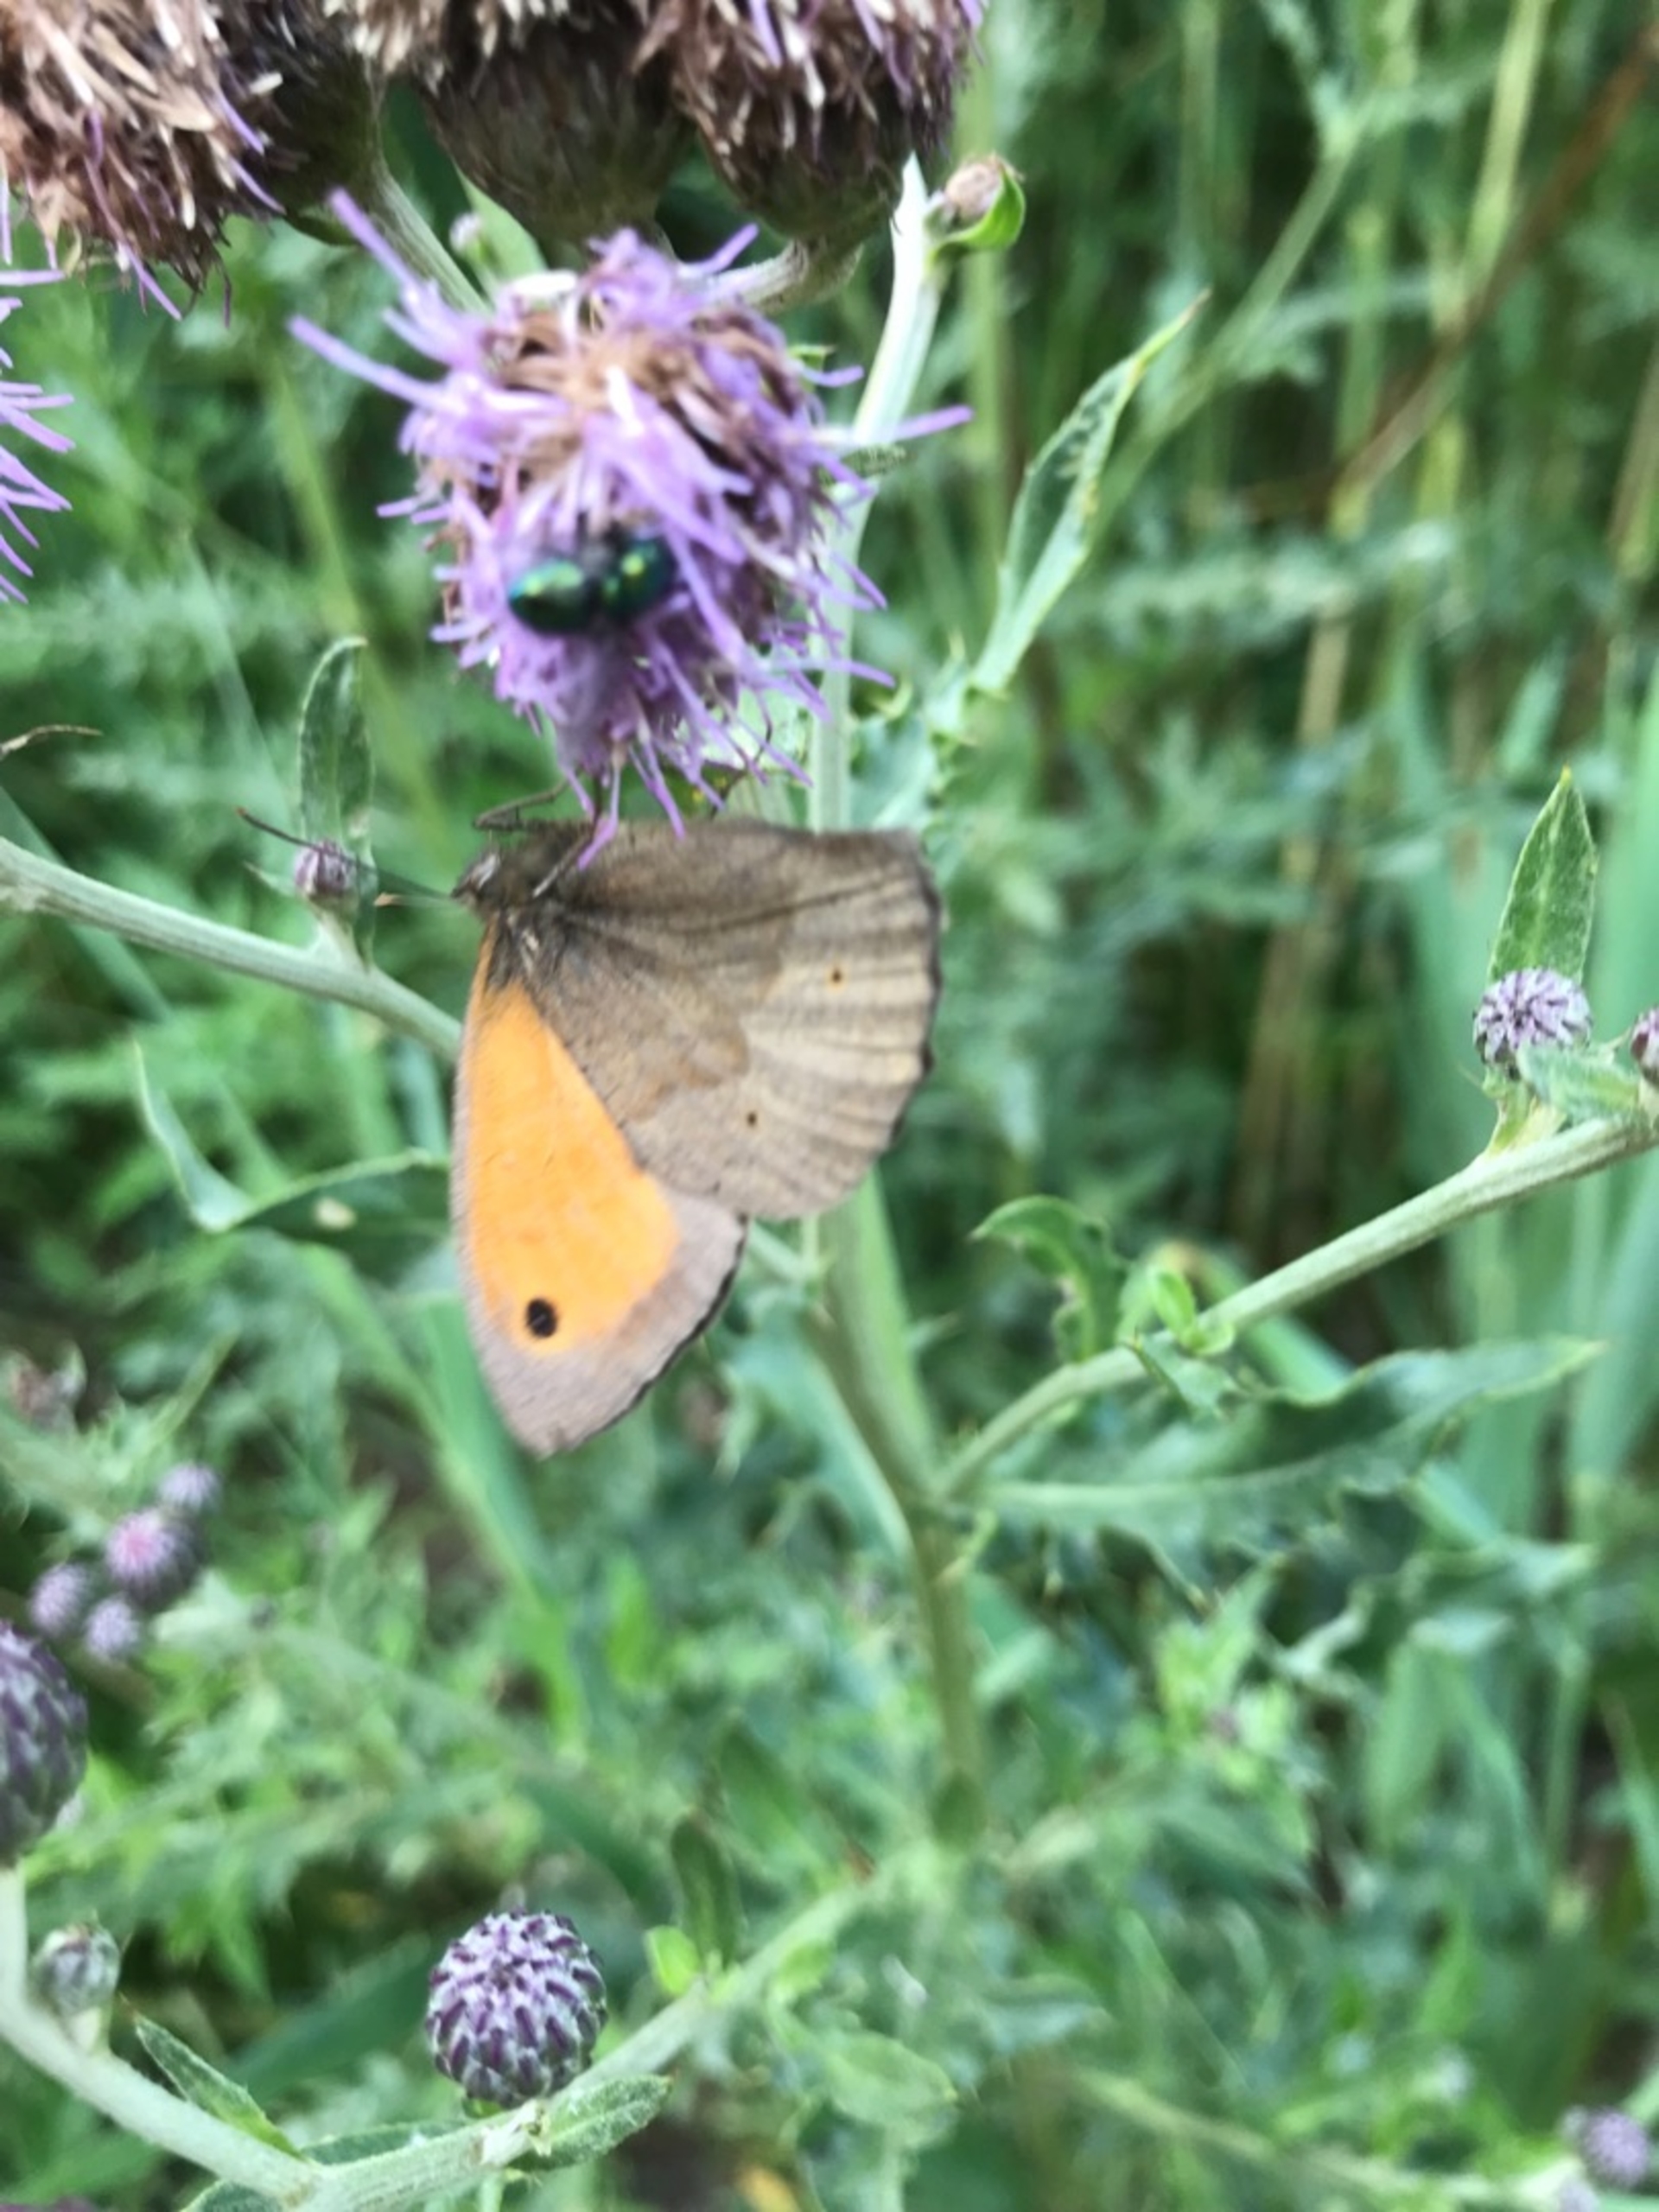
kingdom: Animalia
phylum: Arthropoda
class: Insecta
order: Lepidoptera
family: Nymphalidae
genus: Maniola
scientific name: Maniola jurtina
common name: Græsrandøje
